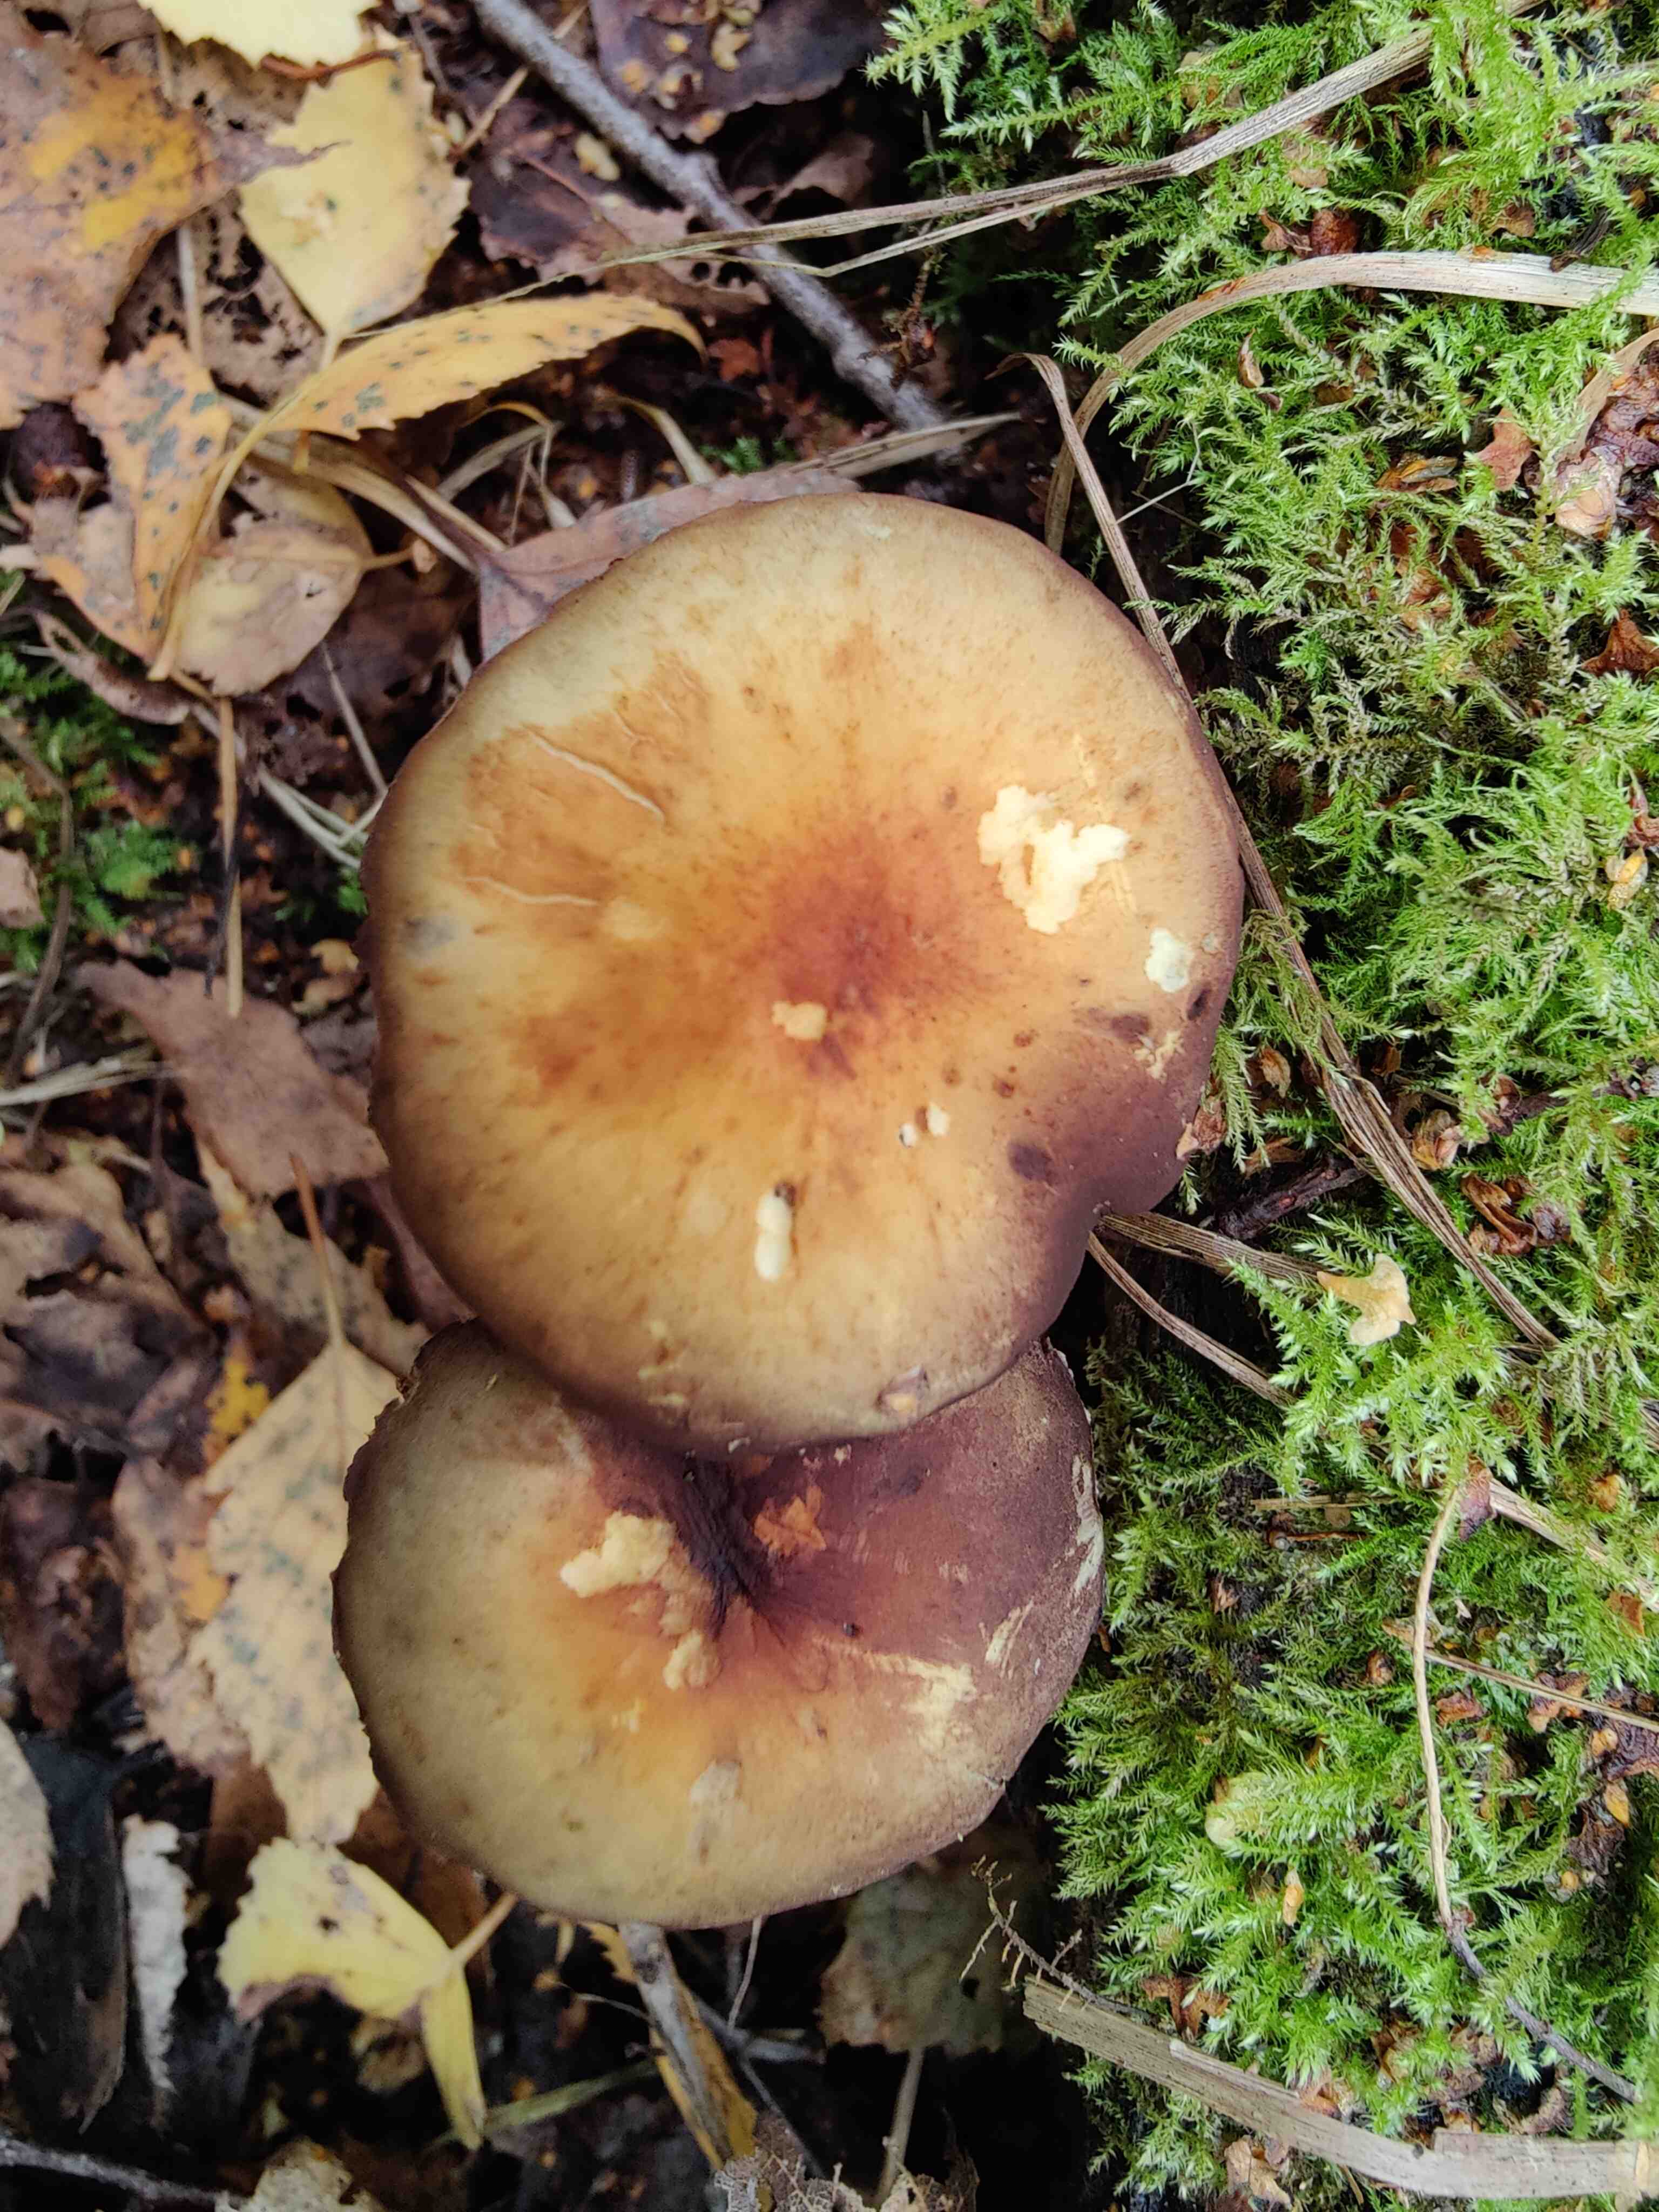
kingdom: Fungi
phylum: Basidiomycota
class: Agaricomycetes
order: Agaricales
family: Strophariaceae
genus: Hypholoma
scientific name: Hypholoma fasciculare
